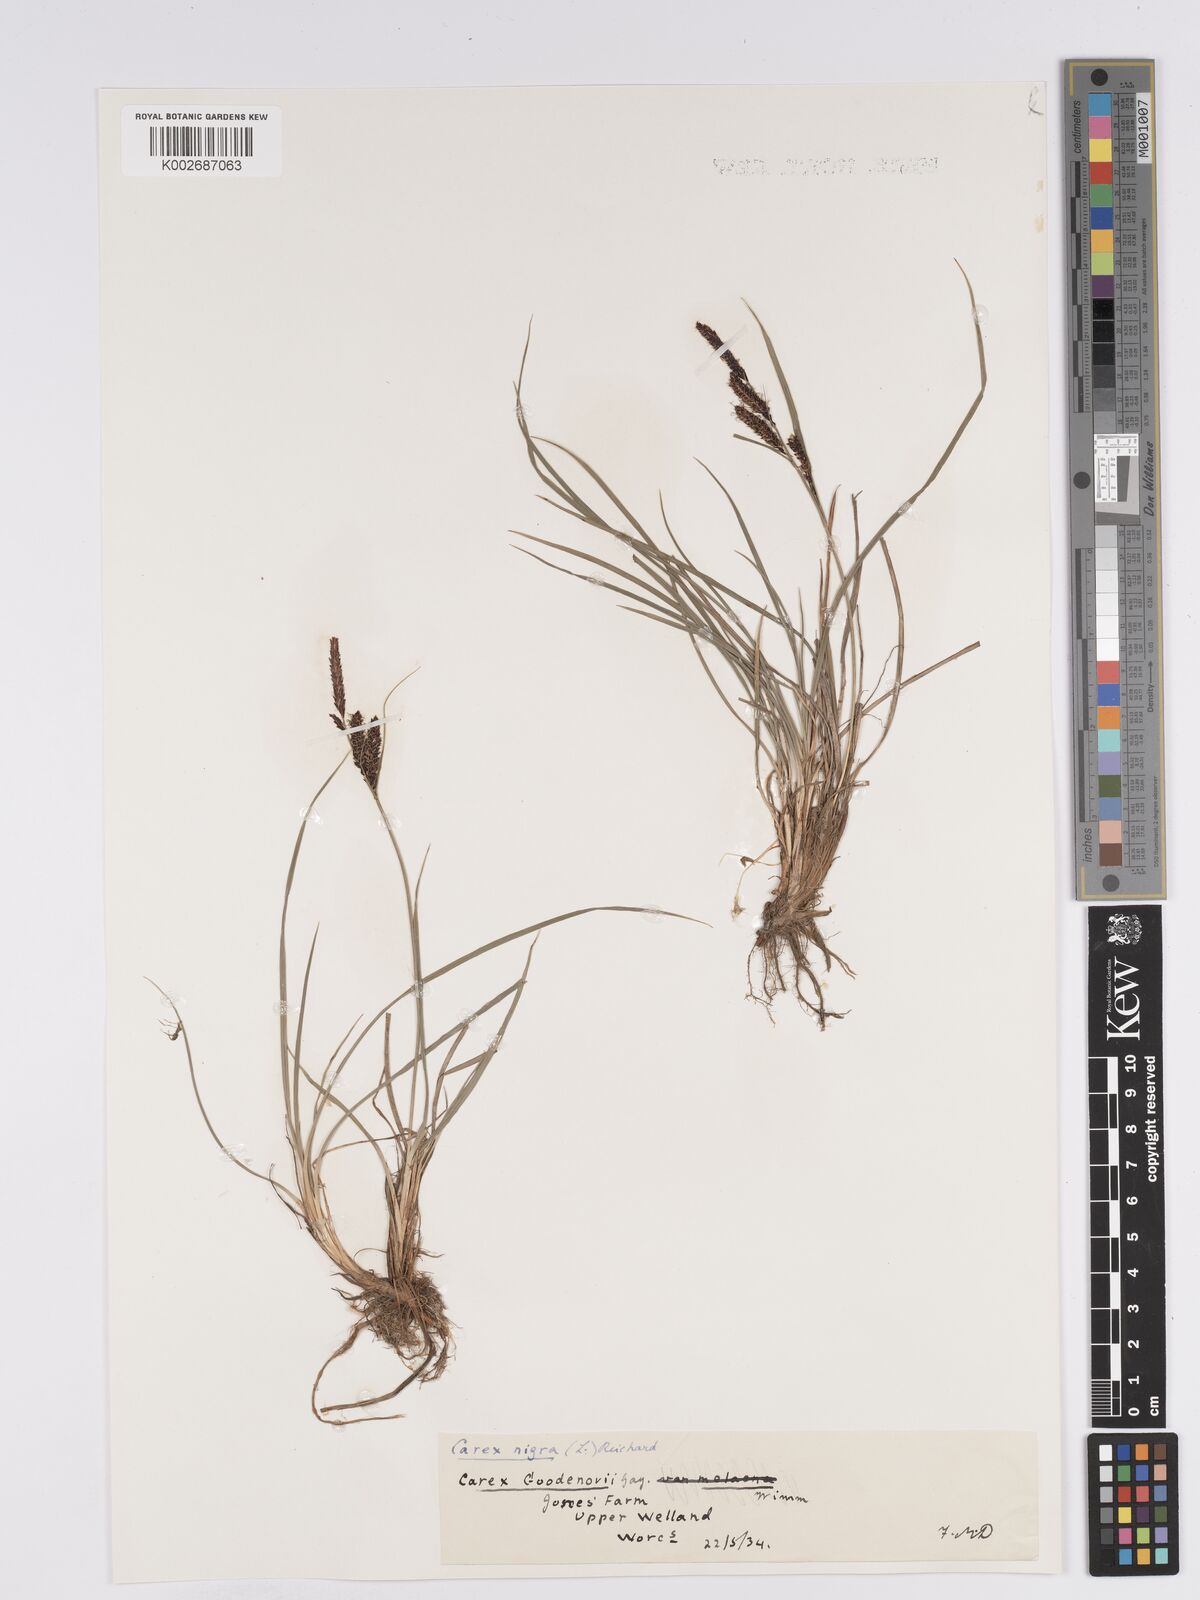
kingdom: Plantae
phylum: Tracheophyta
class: Liliopsida
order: Poales
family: Cyperaceae
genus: Carex
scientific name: Carex nigra
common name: Common sedge
